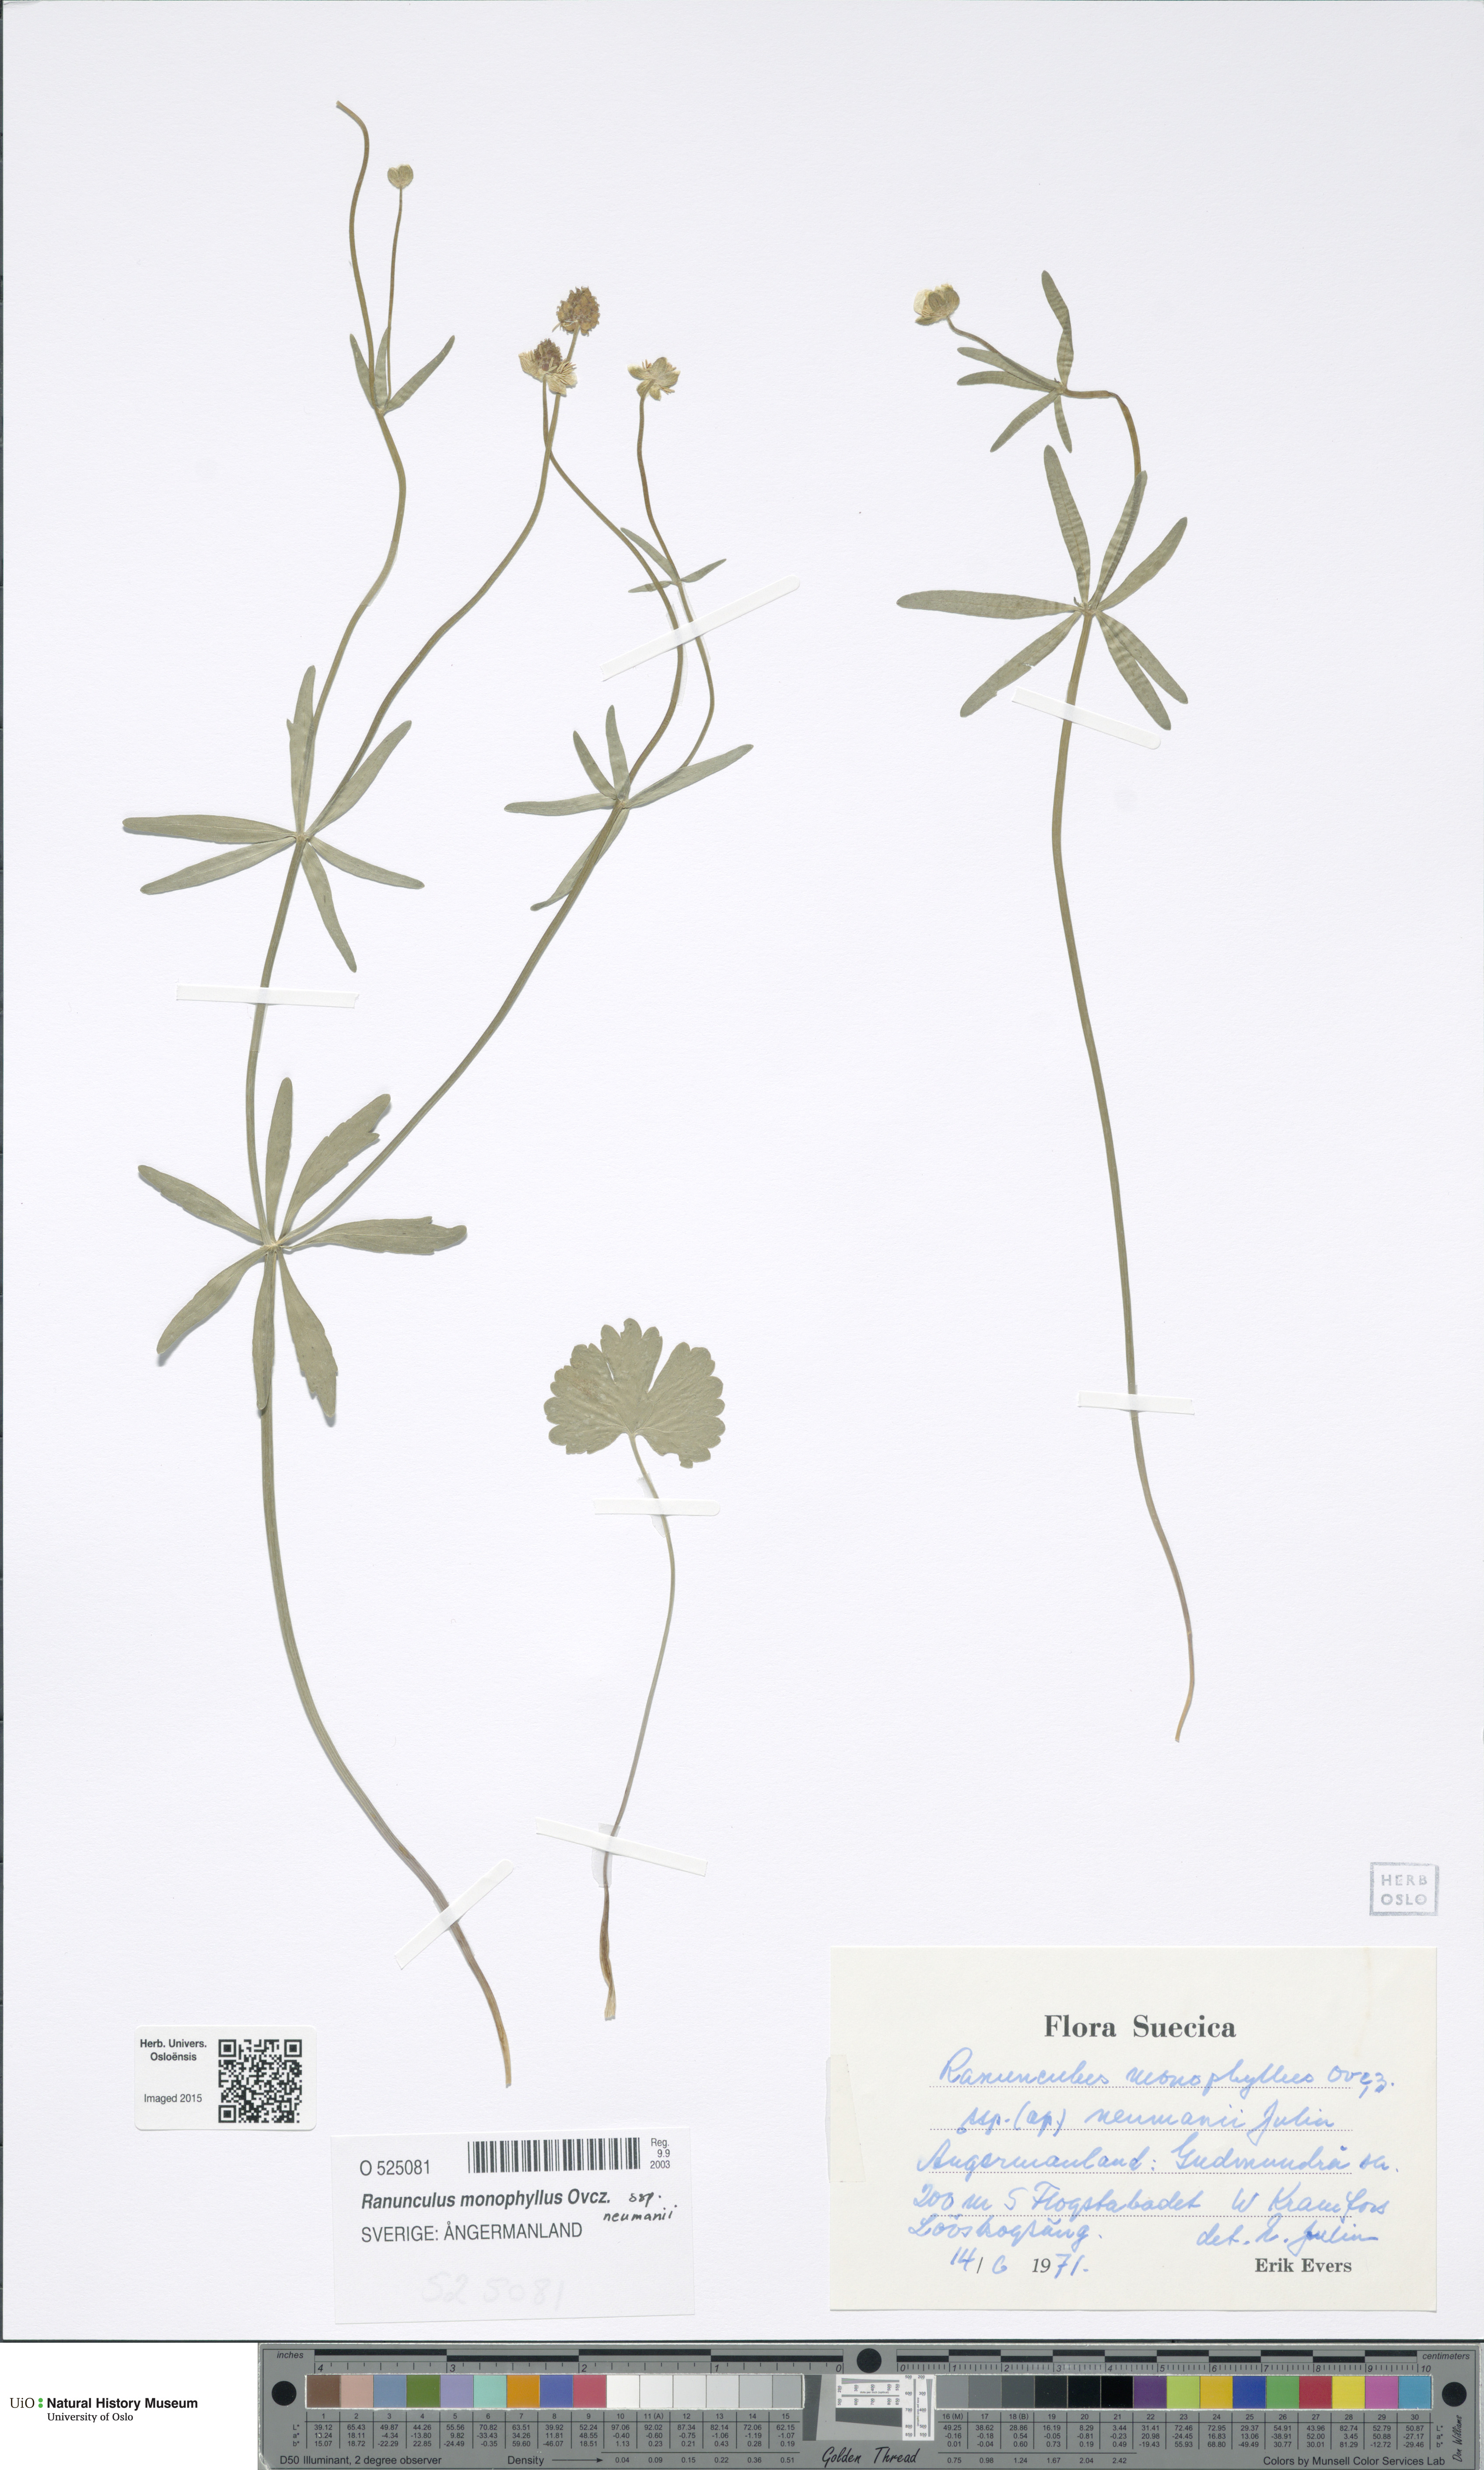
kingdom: Plantae
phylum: Tracheophyta
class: Magnoliopsida
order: Ranunculales
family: Ranunculaceae
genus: Ranunculus
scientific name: Ranunculus neumanii
